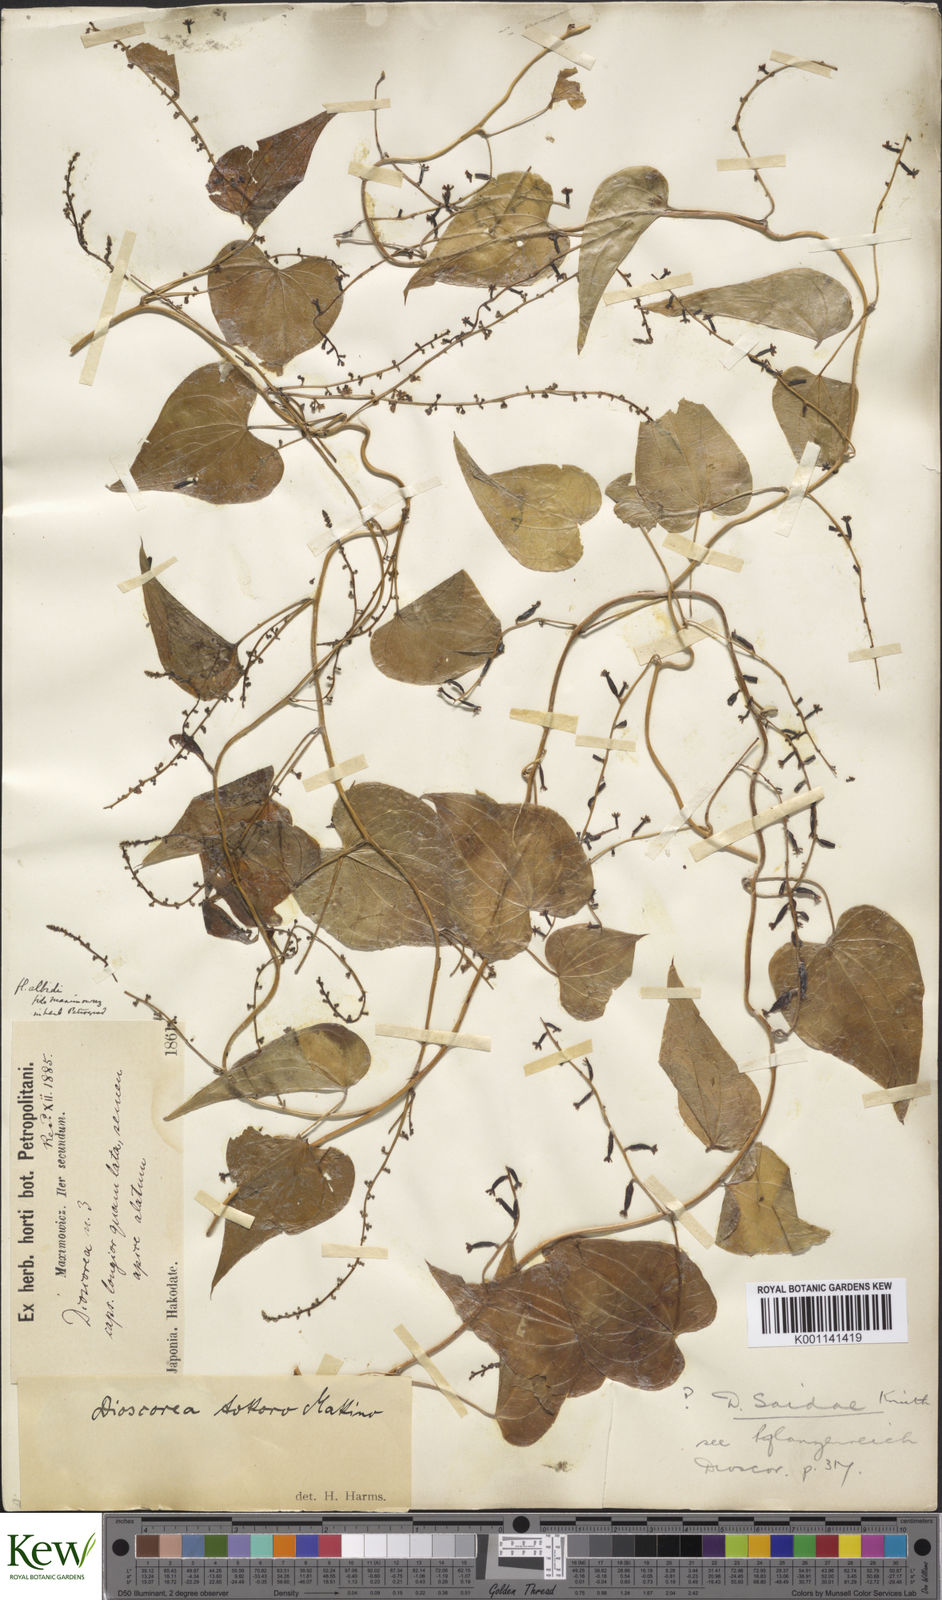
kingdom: Plantae
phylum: Tracheophyta
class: Liliopsida
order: Dioscoreales
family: Dioscoreaceae
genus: Dioscorea
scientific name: Dioscorea tokoro
